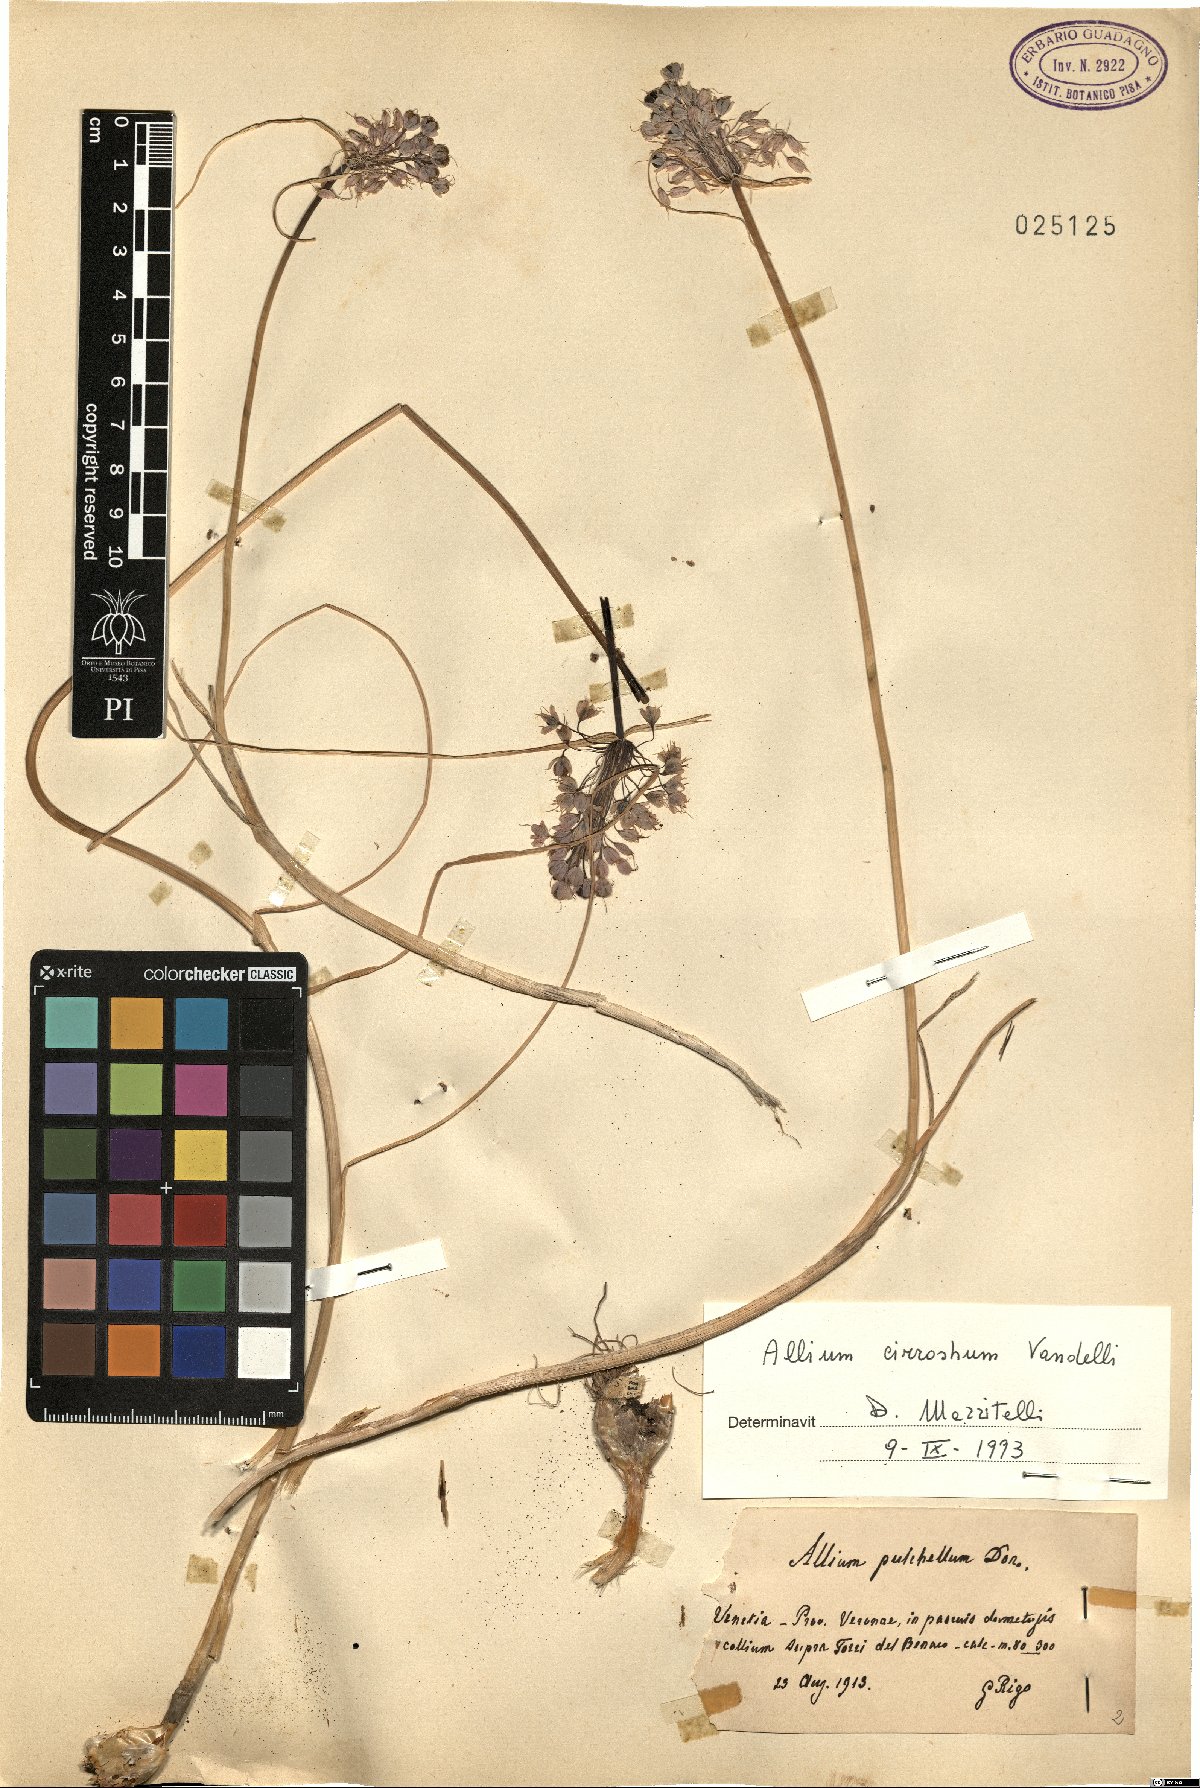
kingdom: Plantae
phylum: Tracheophyta
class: Liliopsida
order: Asparagales
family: Amaryllidaceae
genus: Allium
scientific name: Allium coloratum
